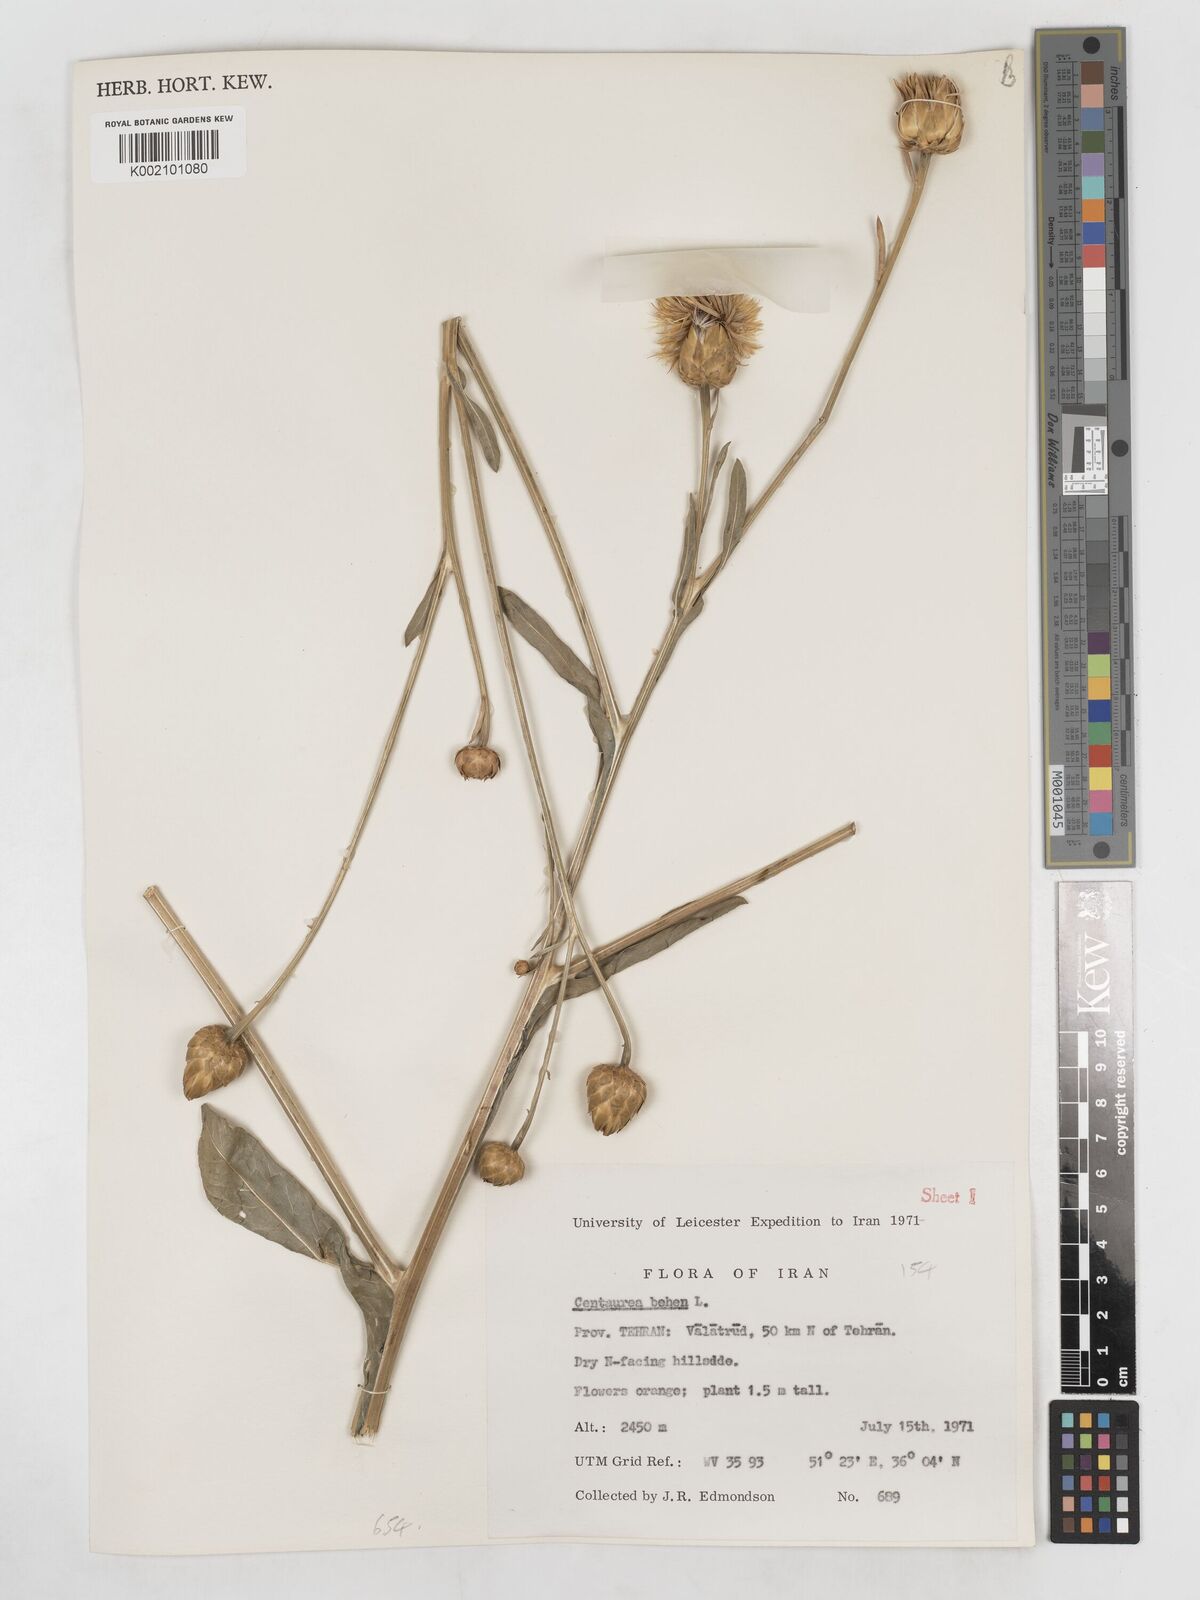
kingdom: Plantae
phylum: Tracheophyta
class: Magnoliopsida
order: Asterales
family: Asteraceae
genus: Centaurea
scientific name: Centaurea behen
